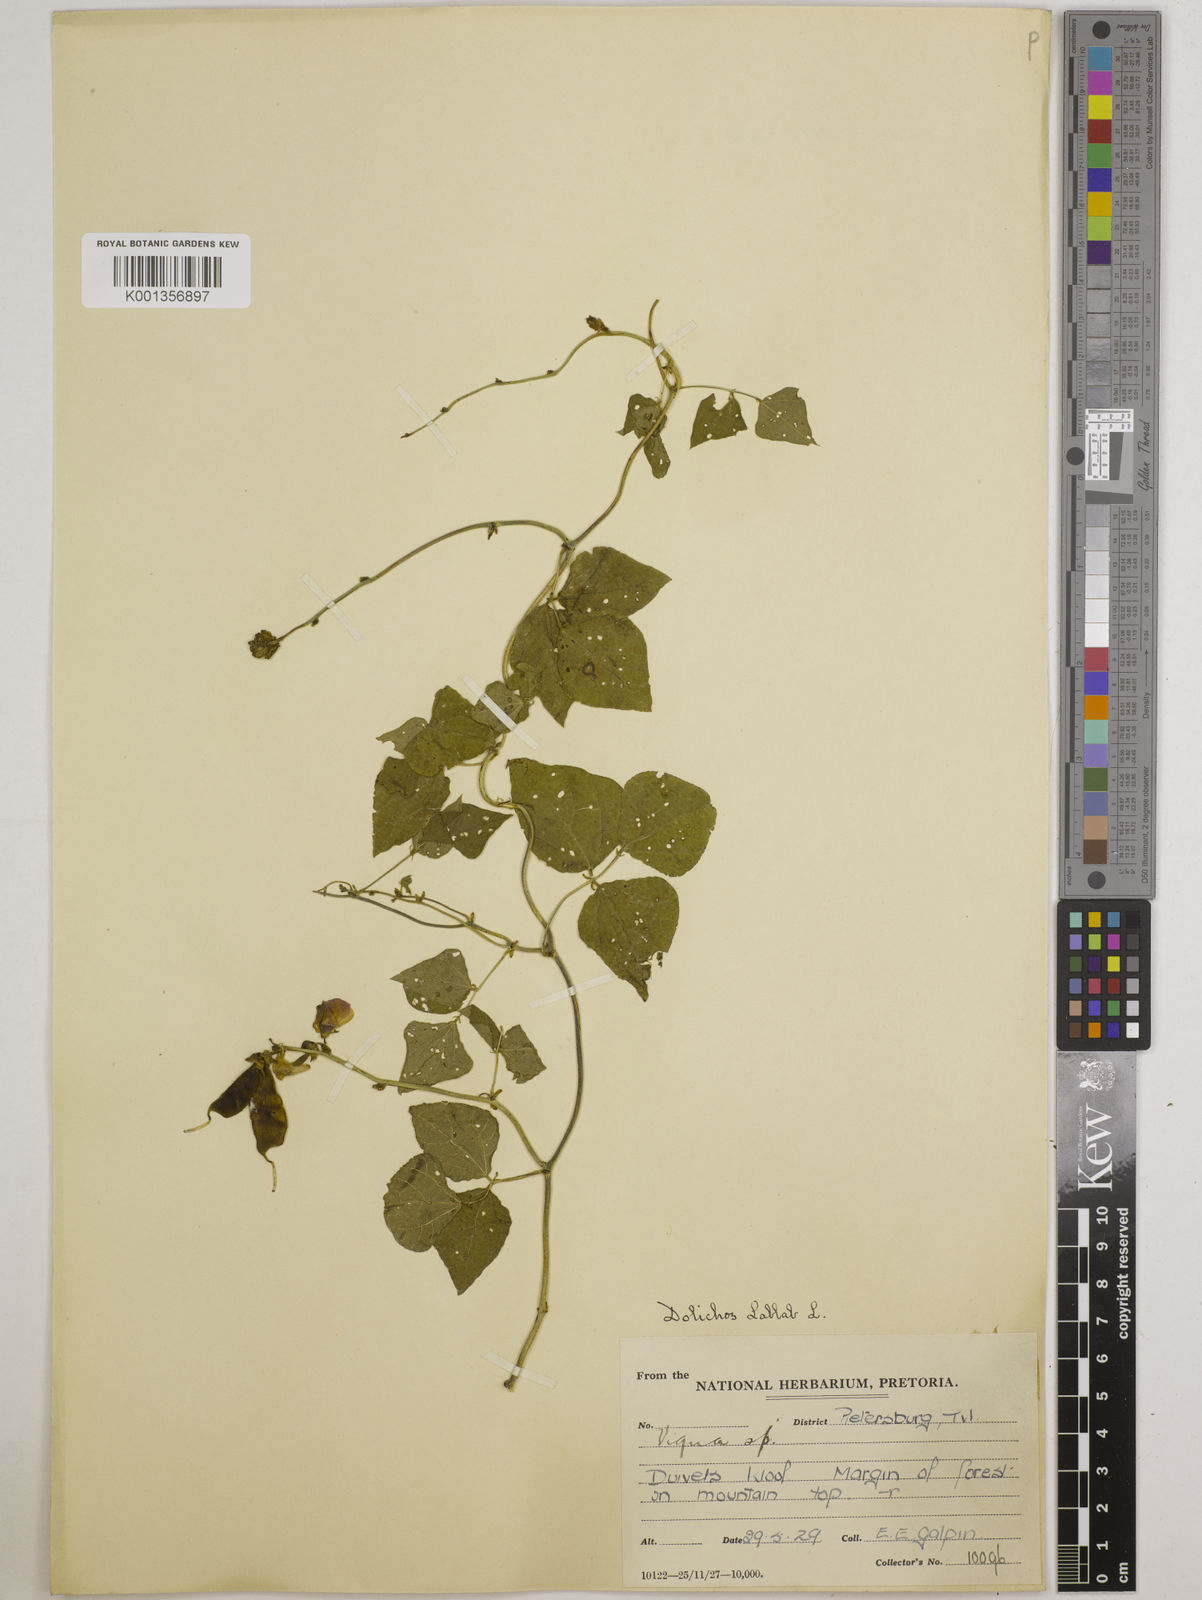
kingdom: Plantae
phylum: Tracheophyta
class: Magnoliopsida
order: Fabales
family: Fabaceae
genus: Lablab
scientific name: Lablab purpureus
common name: Lablab-bean
